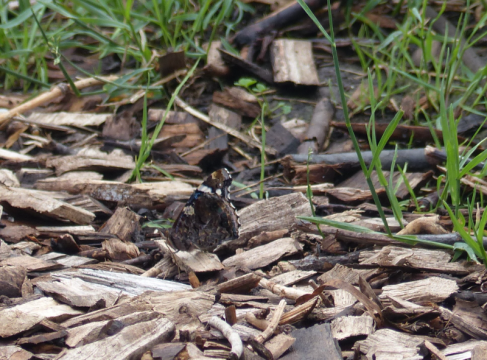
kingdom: Animalia
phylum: Arthropoda
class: Insecta
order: Lepidoptera
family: Nymphalidae
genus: Vanessa
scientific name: Vanessa atalanta
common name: Red Admiral
